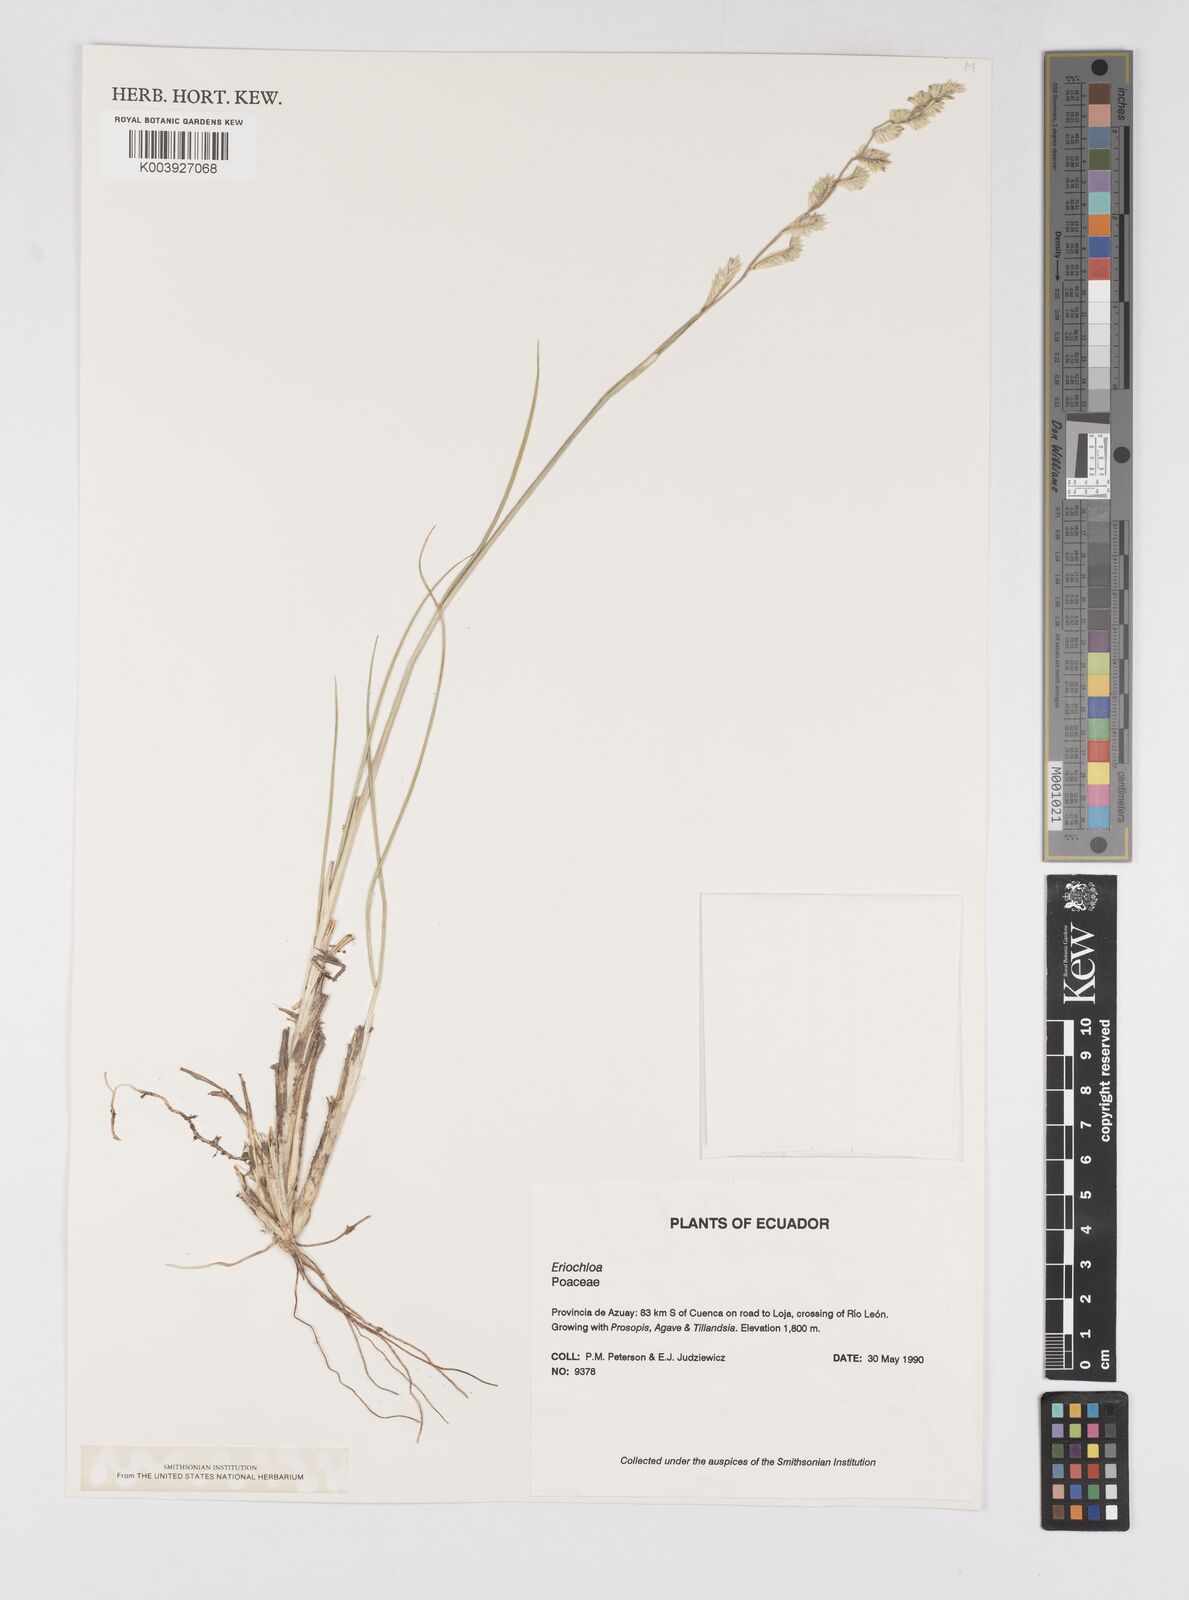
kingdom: Plantae
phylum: Tracheophyta
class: Liliopsida
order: Poales
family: Poaceae
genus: Eriochloa
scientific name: Eriochloa weberbaueri
